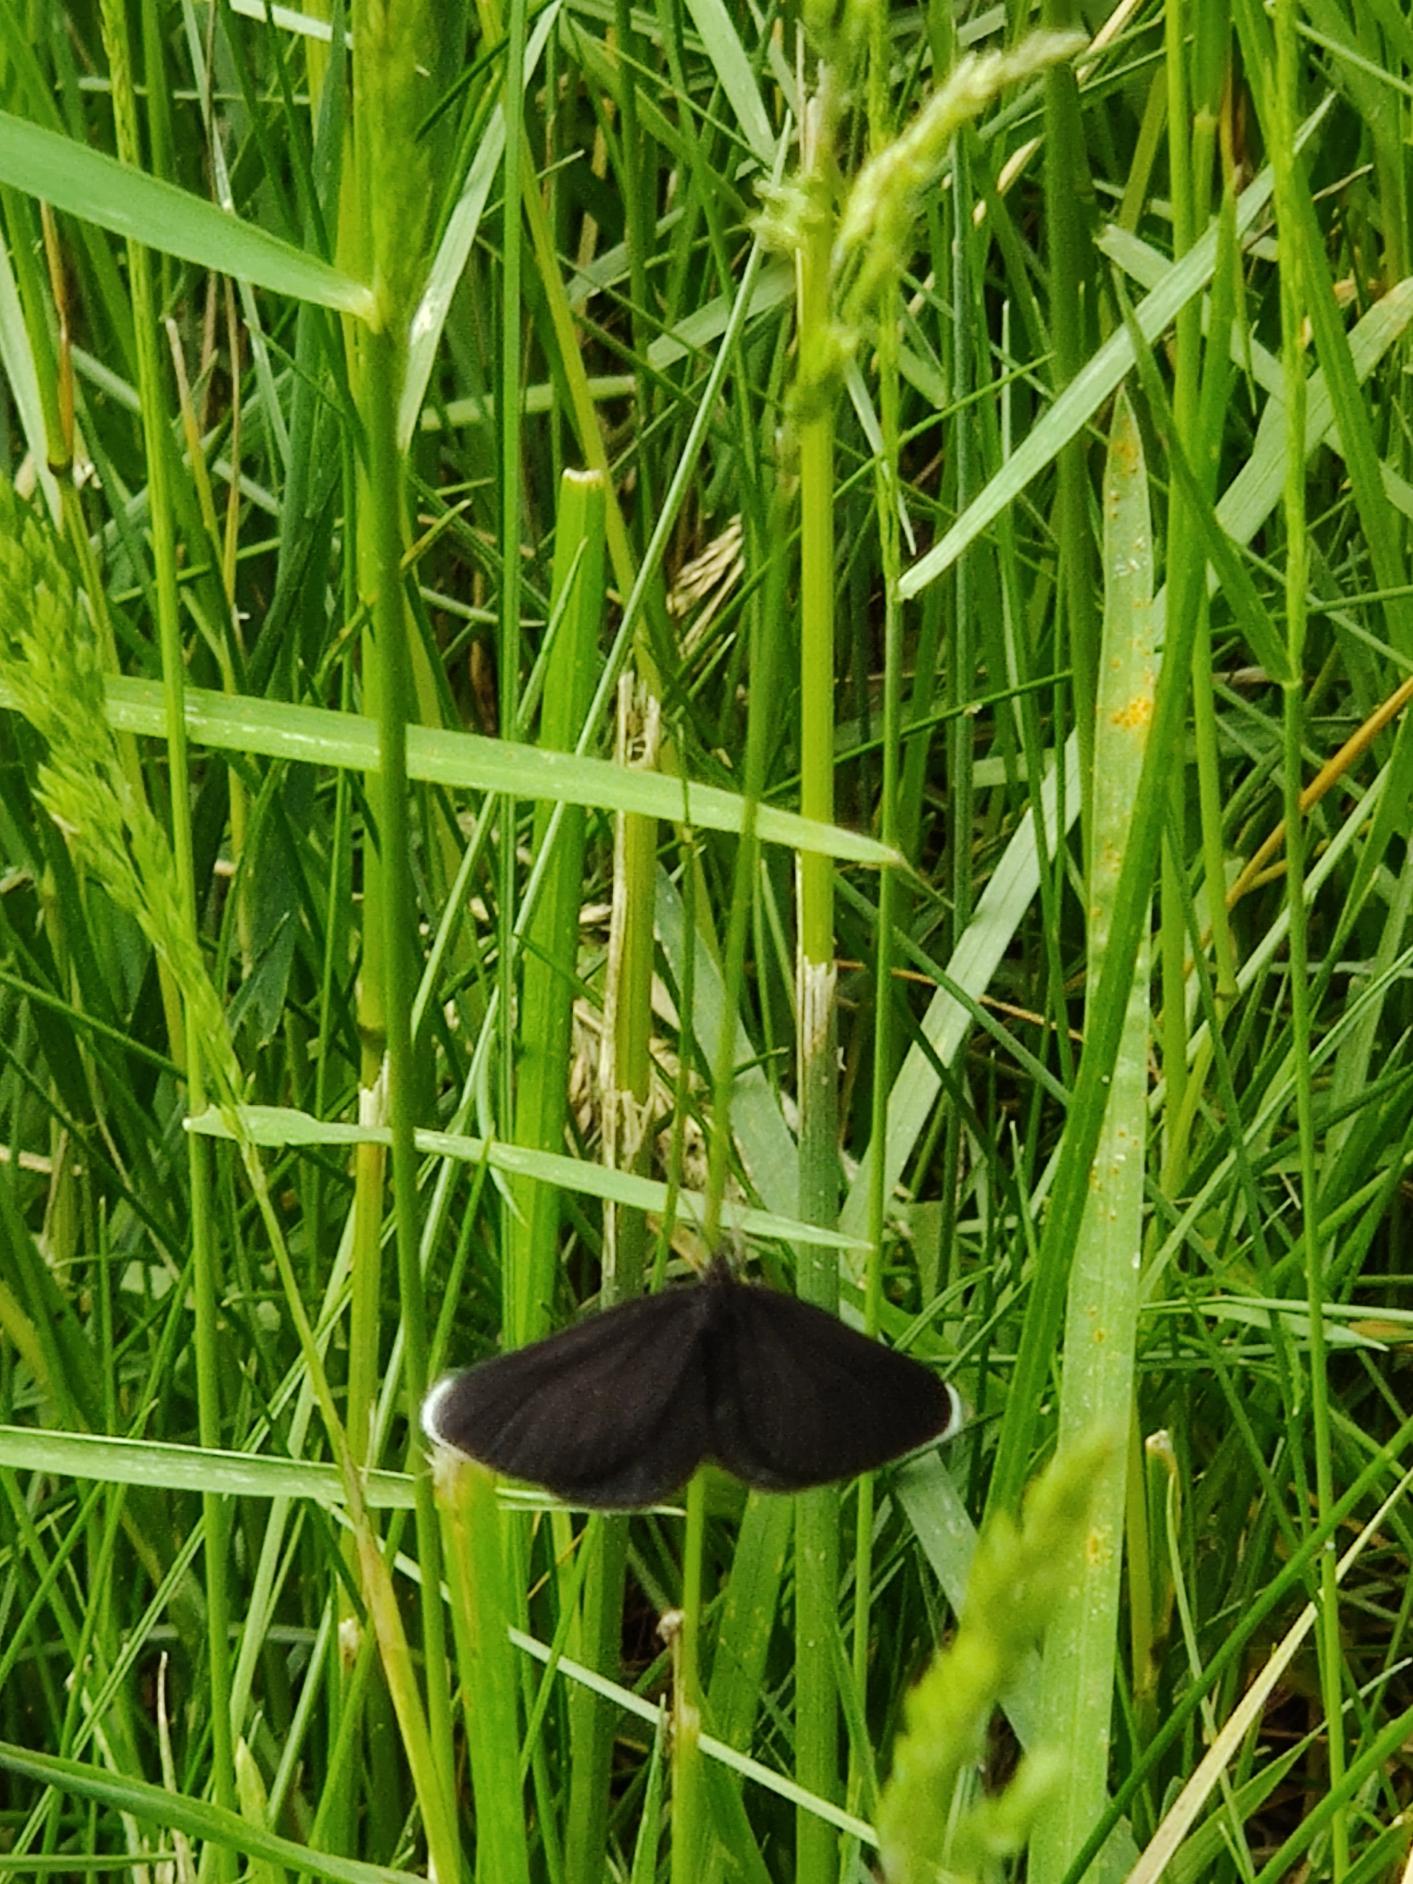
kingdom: Animalia
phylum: Arthropoda
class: Insecta
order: Lepidoptera
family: Geometridae
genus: Odezia
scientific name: Odezia atrata
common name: Sort måler
